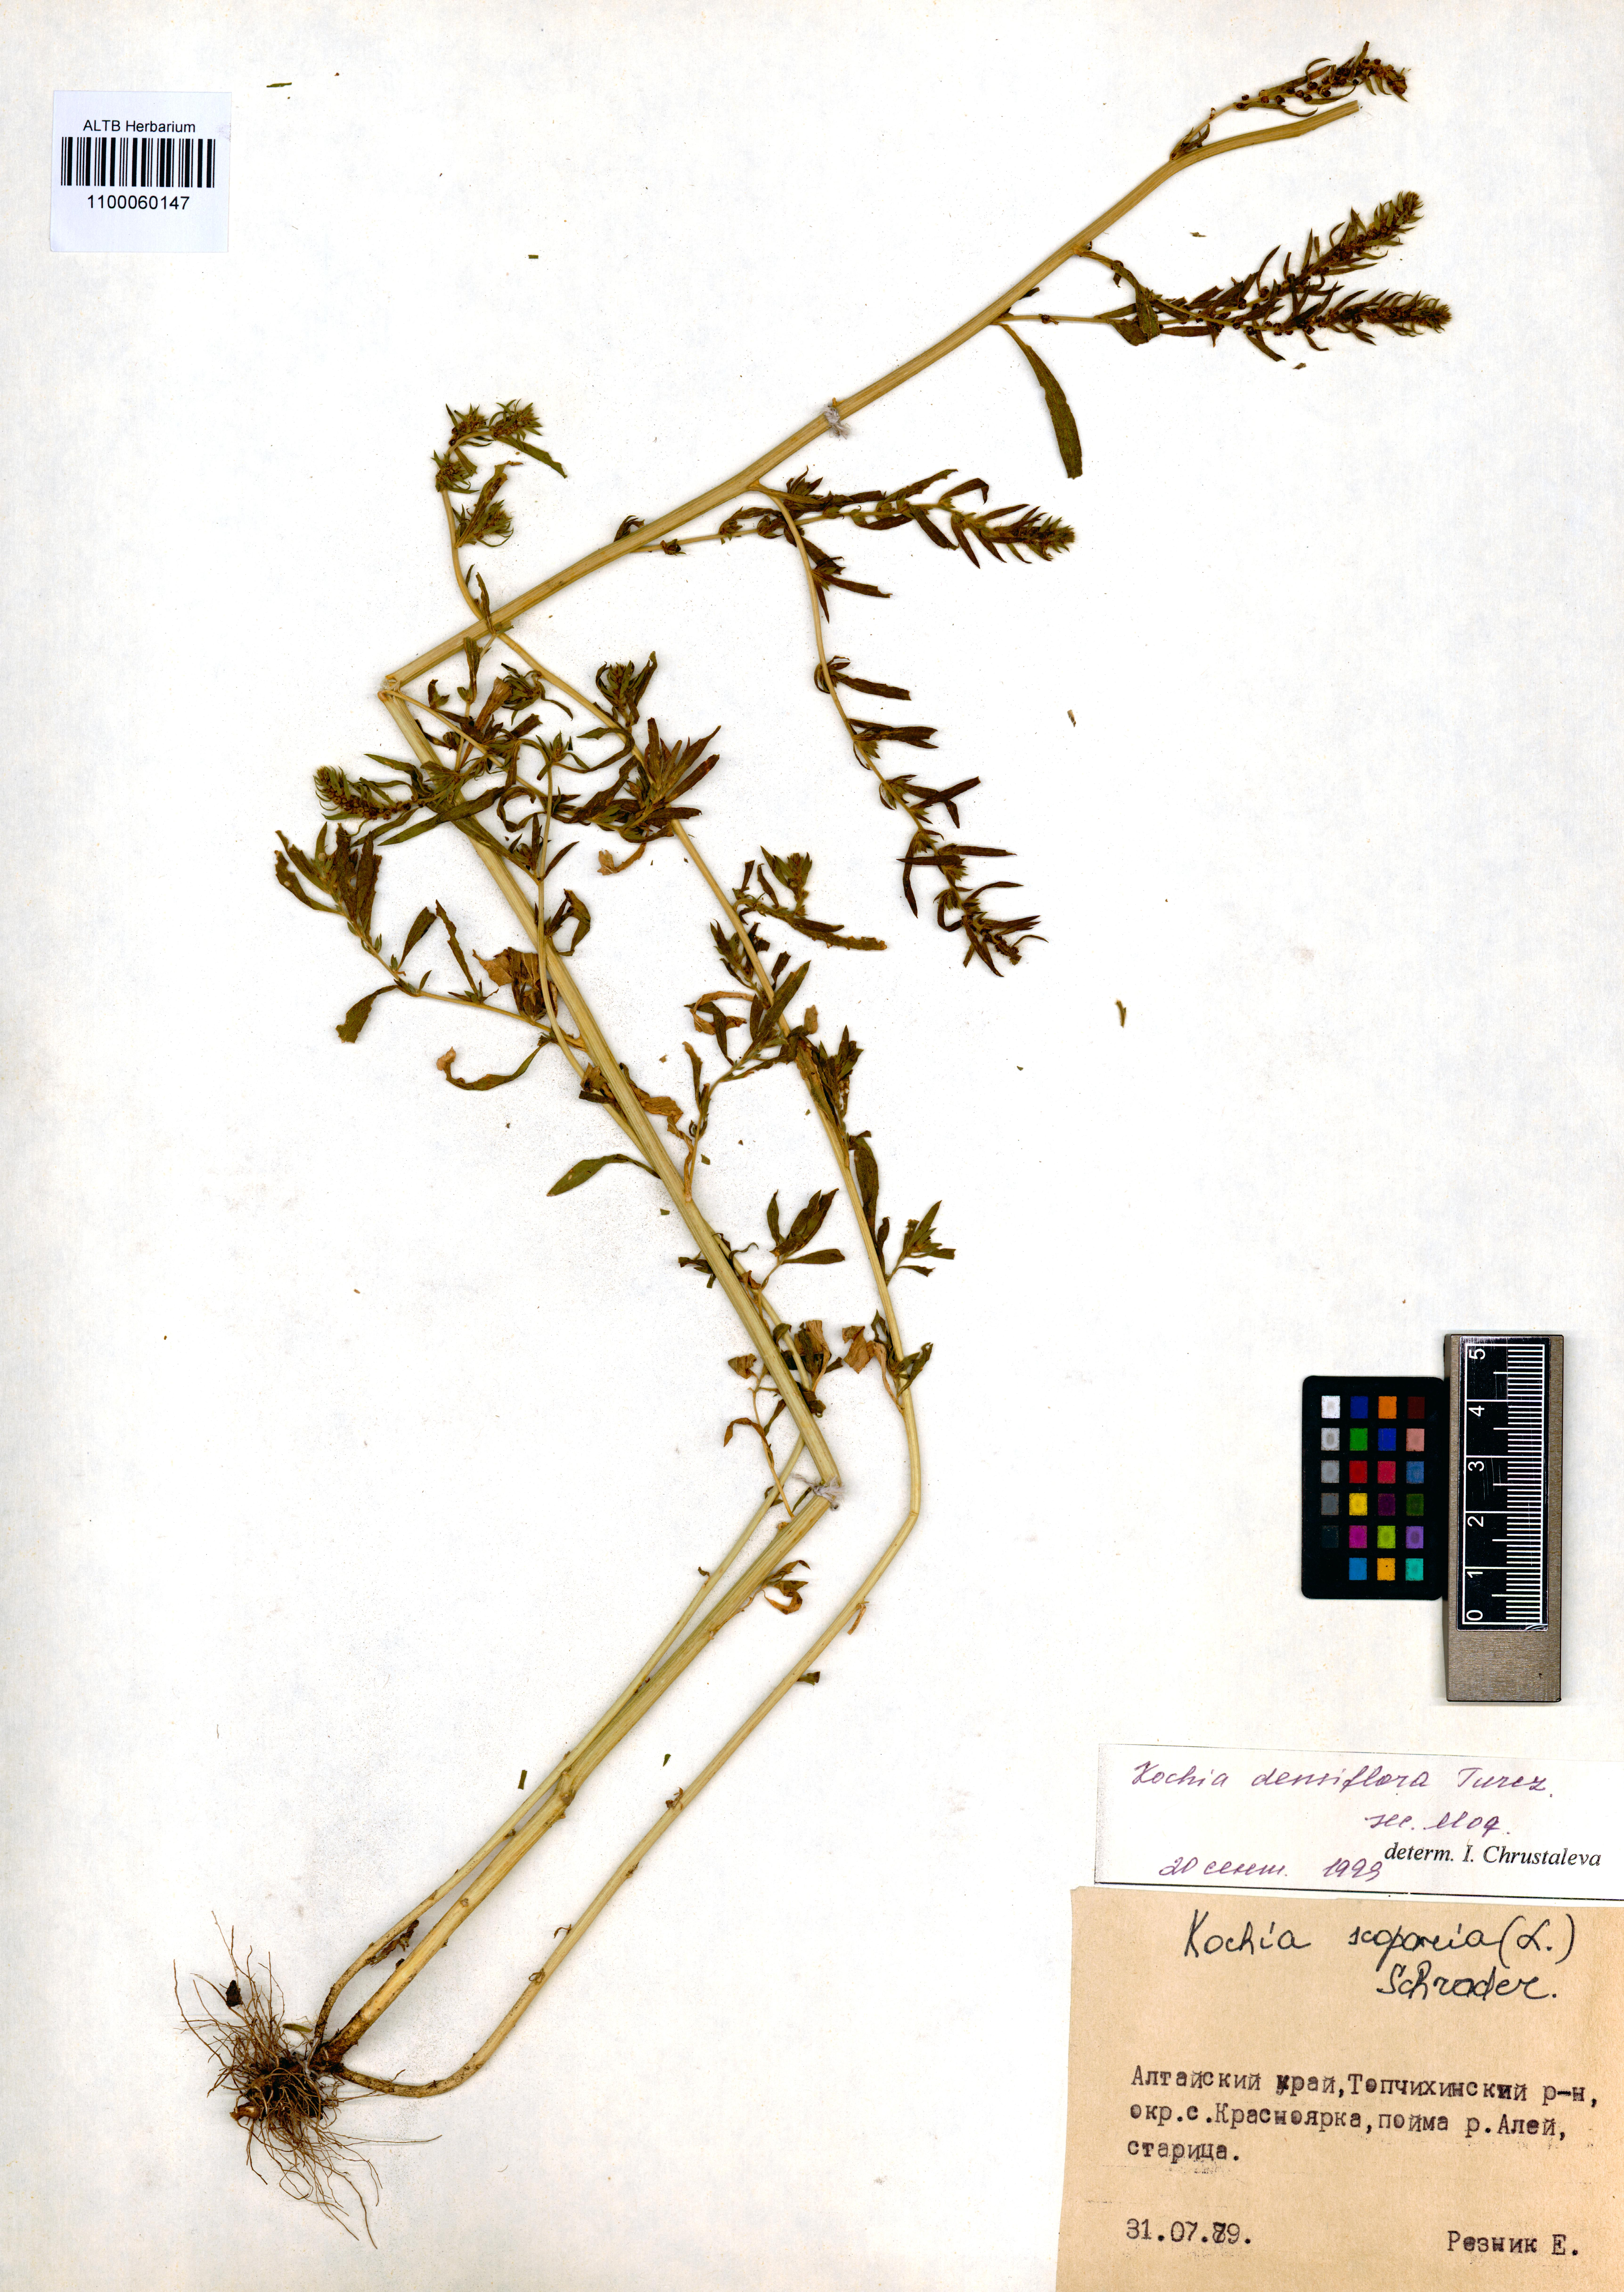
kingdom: Plantae
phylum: Tracheophyta
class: Magnoliopsida
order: Caryophyllales
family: Amaranthaceae
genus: Bassia
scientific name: Bassia scoparia
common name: Belvedere
